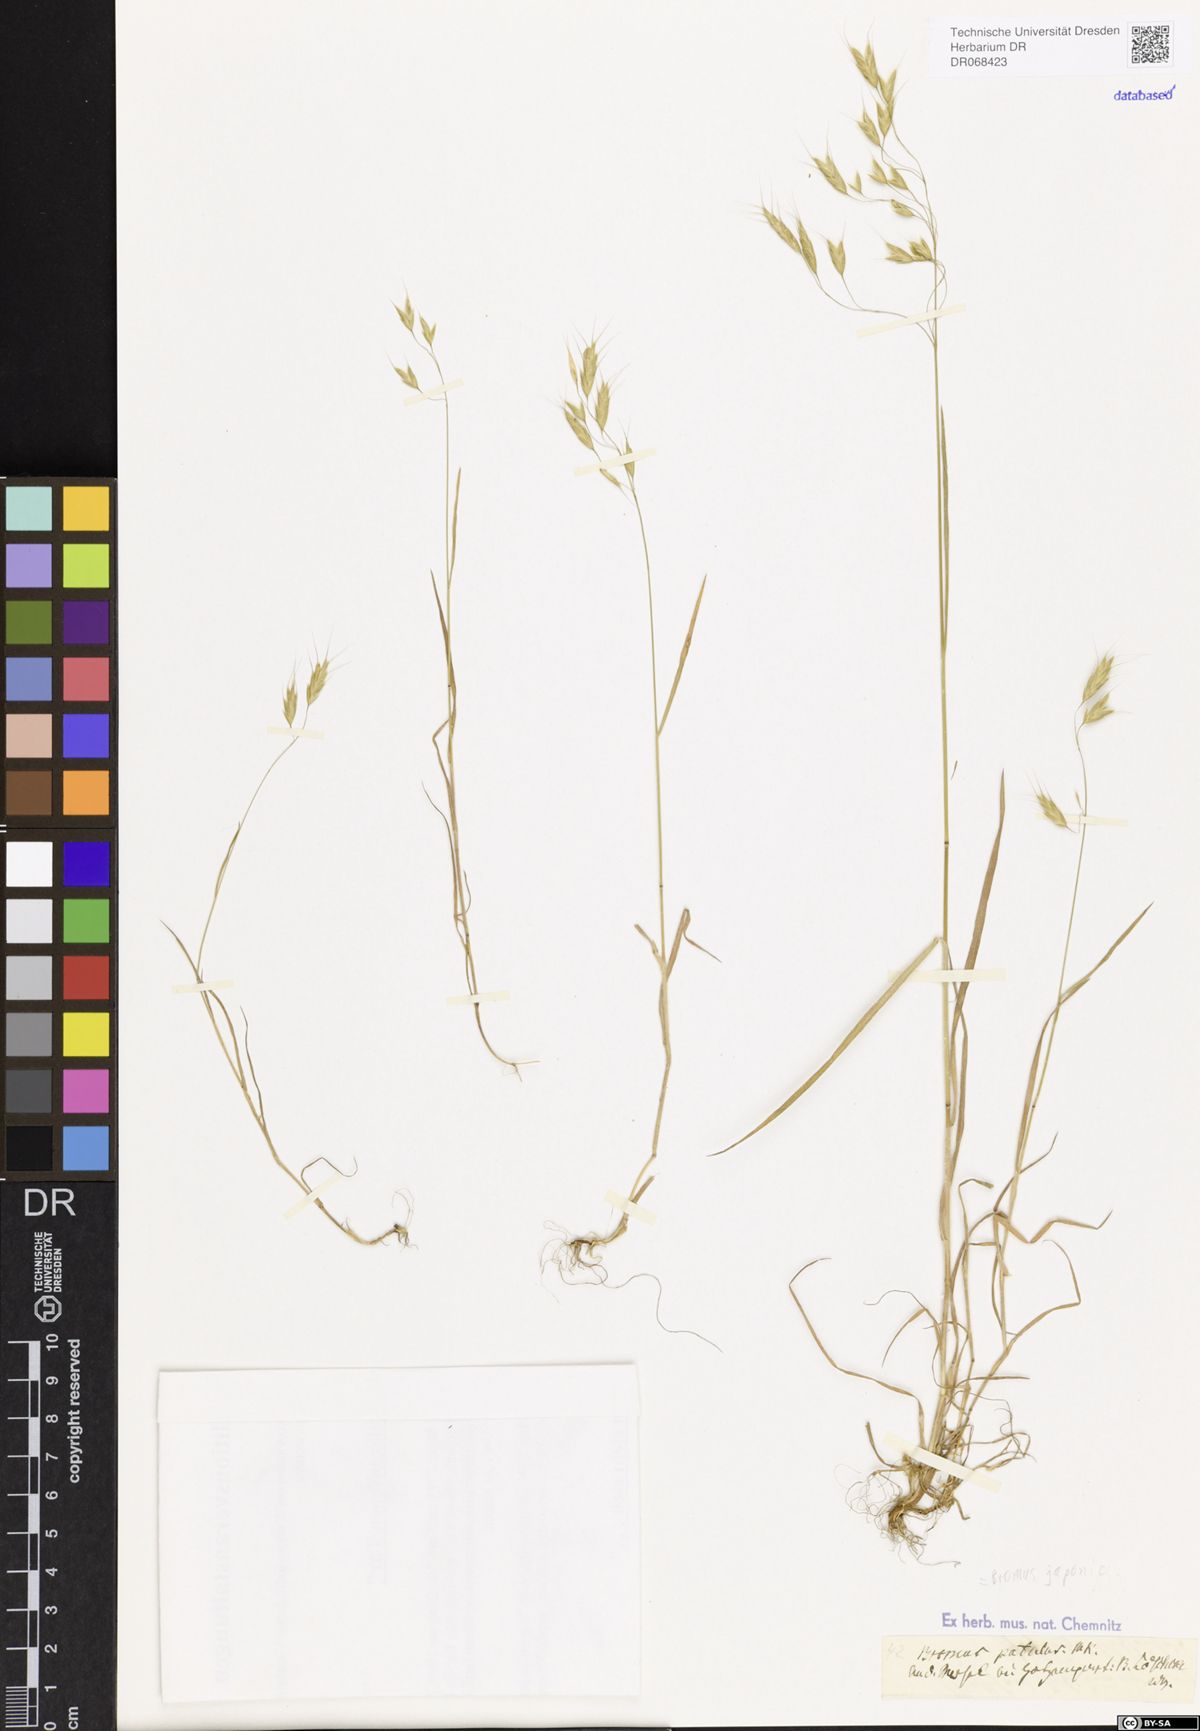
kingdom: Plantae
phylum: Tracheophyta
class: Liliopsida
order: Poales
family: Poaceae
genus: Bromus
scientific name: Bromus japonicus
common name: Japanese brome
